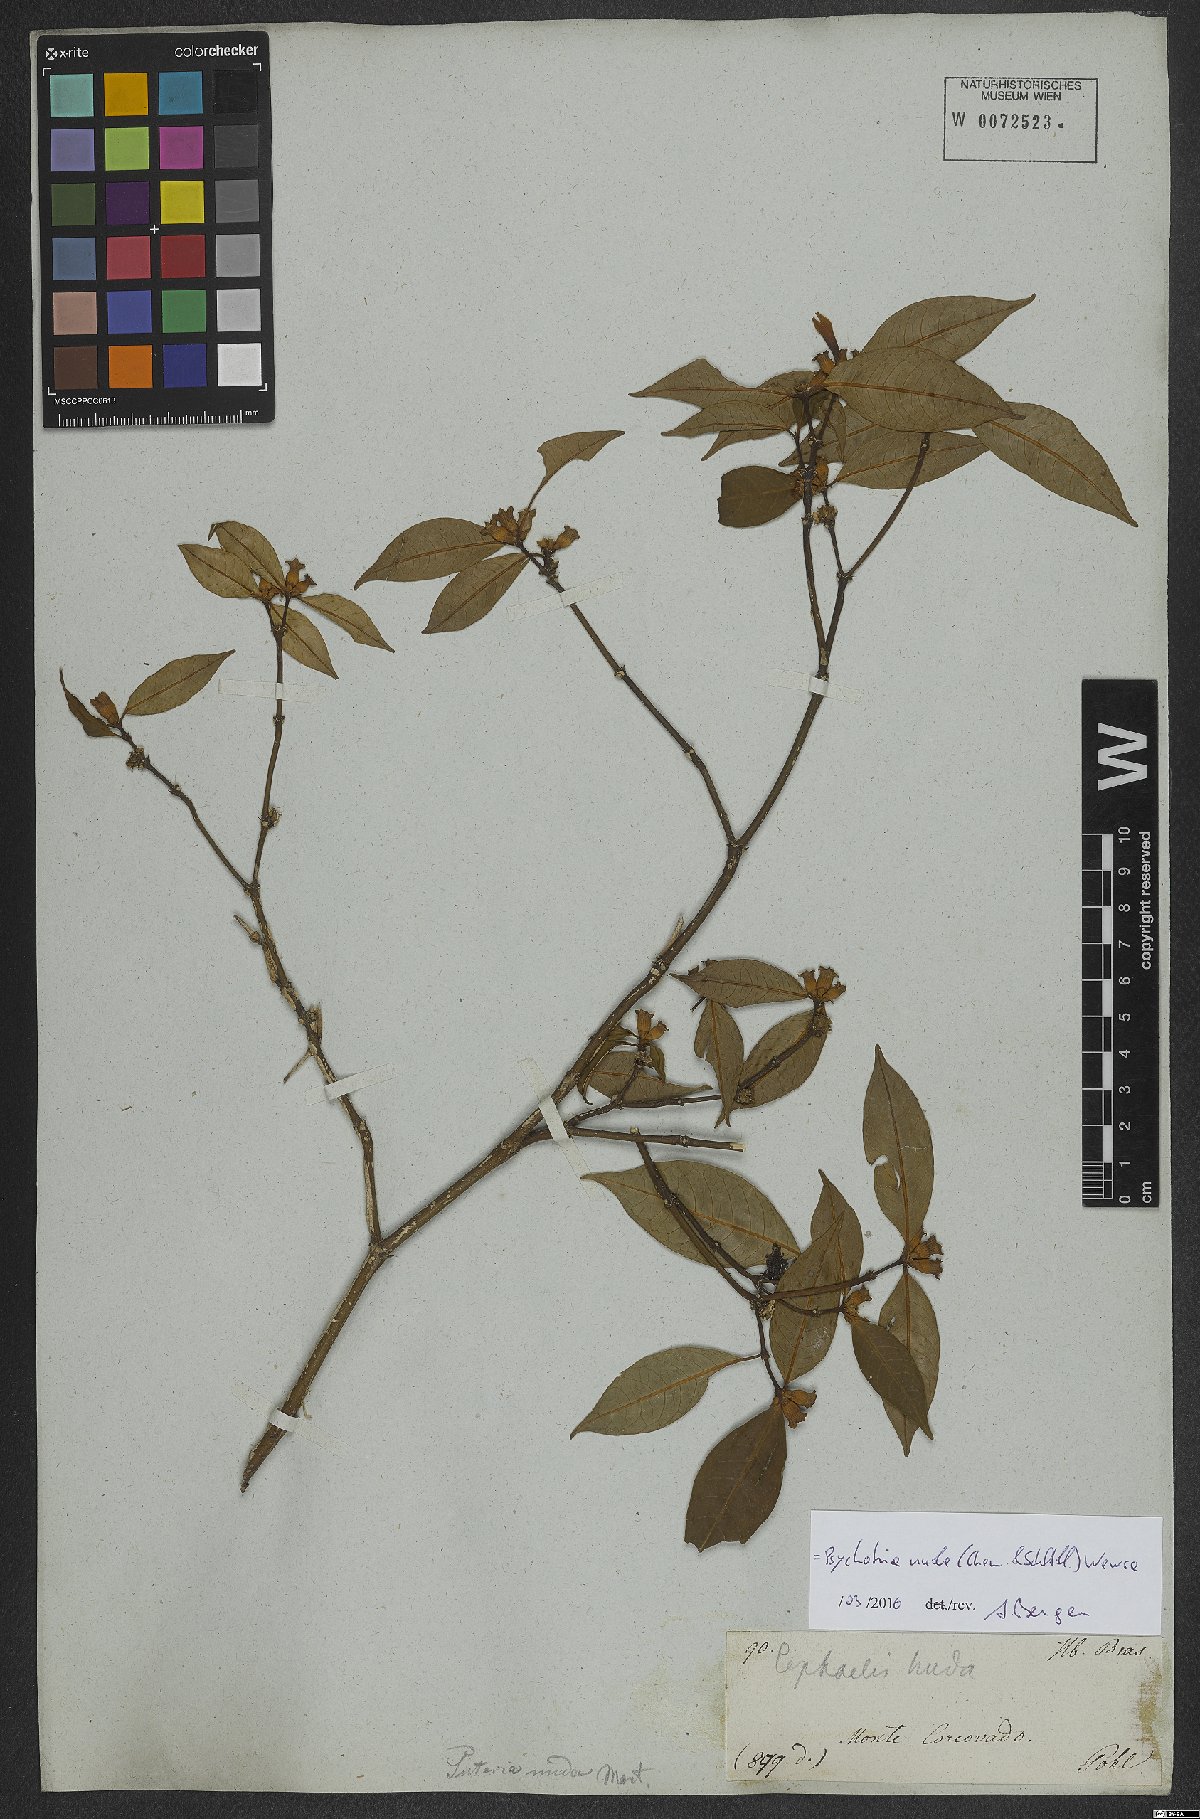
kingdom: Plantae
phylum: Tracheophyta
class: Magnoliopsida
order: Gentianales
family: Rubiaceae
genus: Psychotria
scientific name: Psychotria nuda
